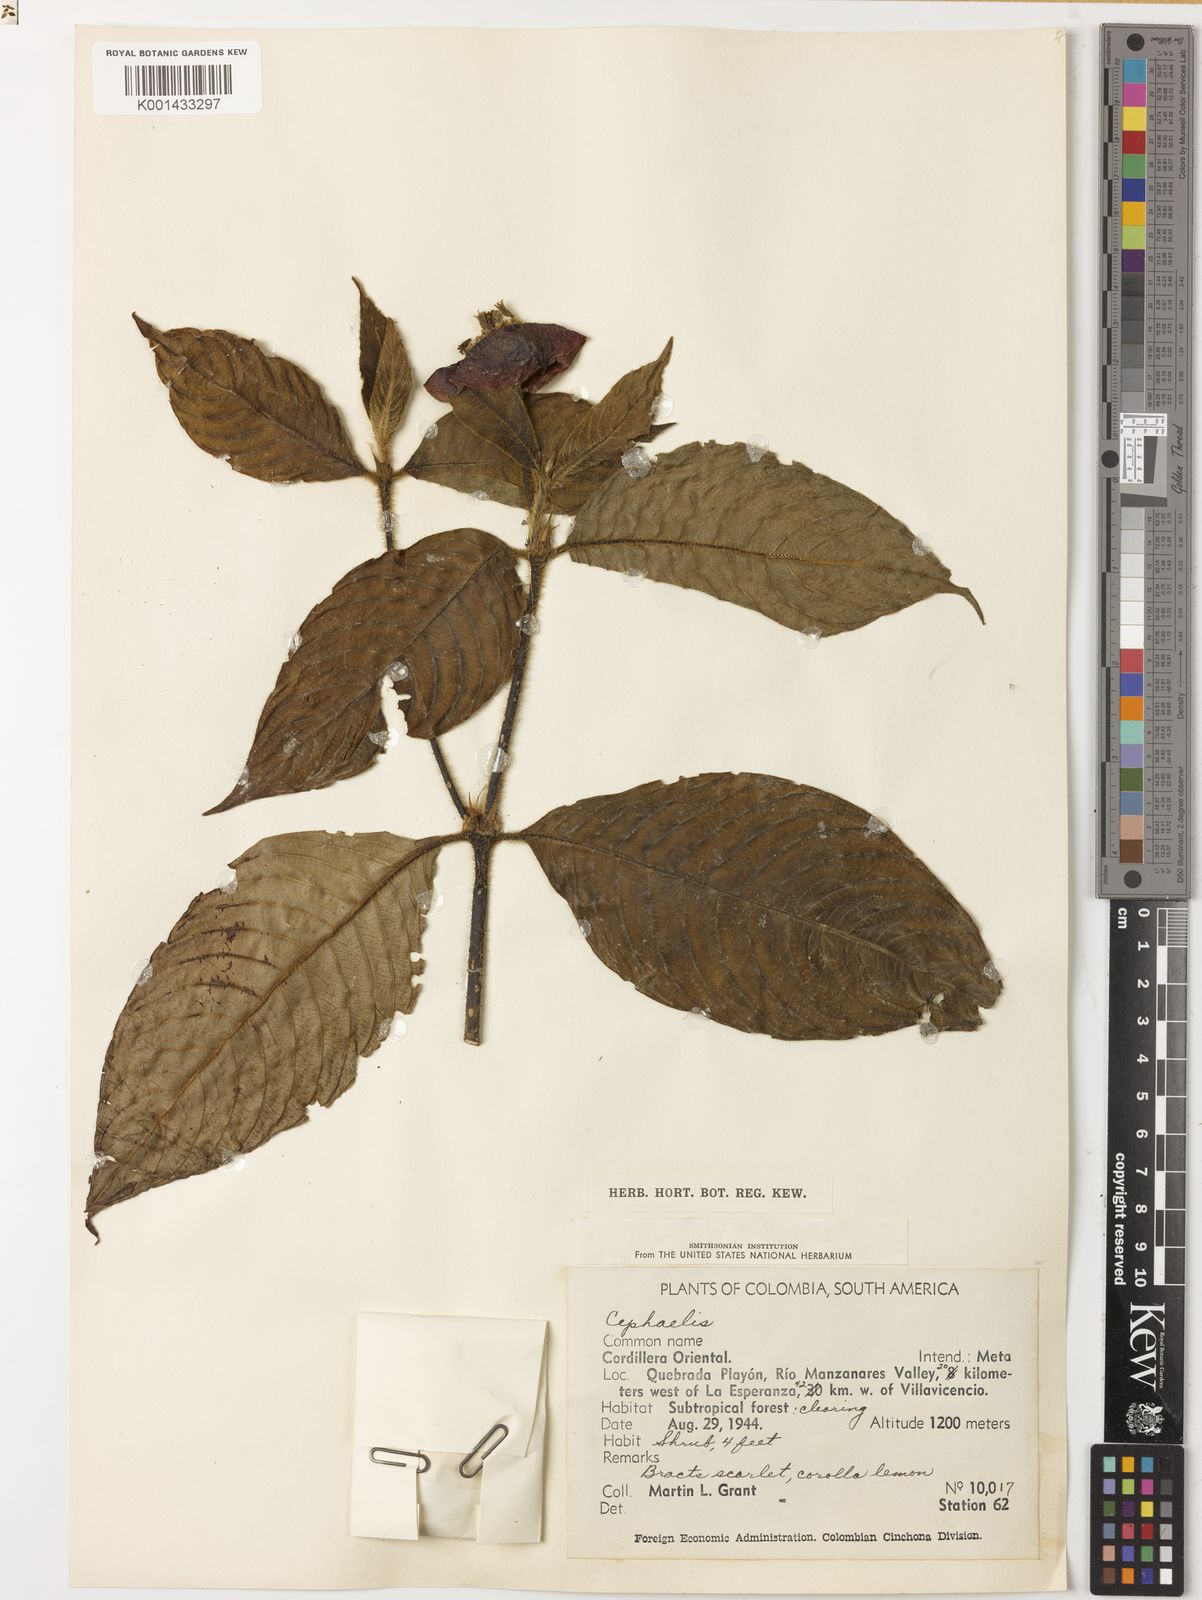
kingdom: Plantae
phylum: Tracheophyta
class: Magnoliopsida
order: Gentianales
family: Rubiaceae
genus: Psychotria
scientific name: Psychotria
